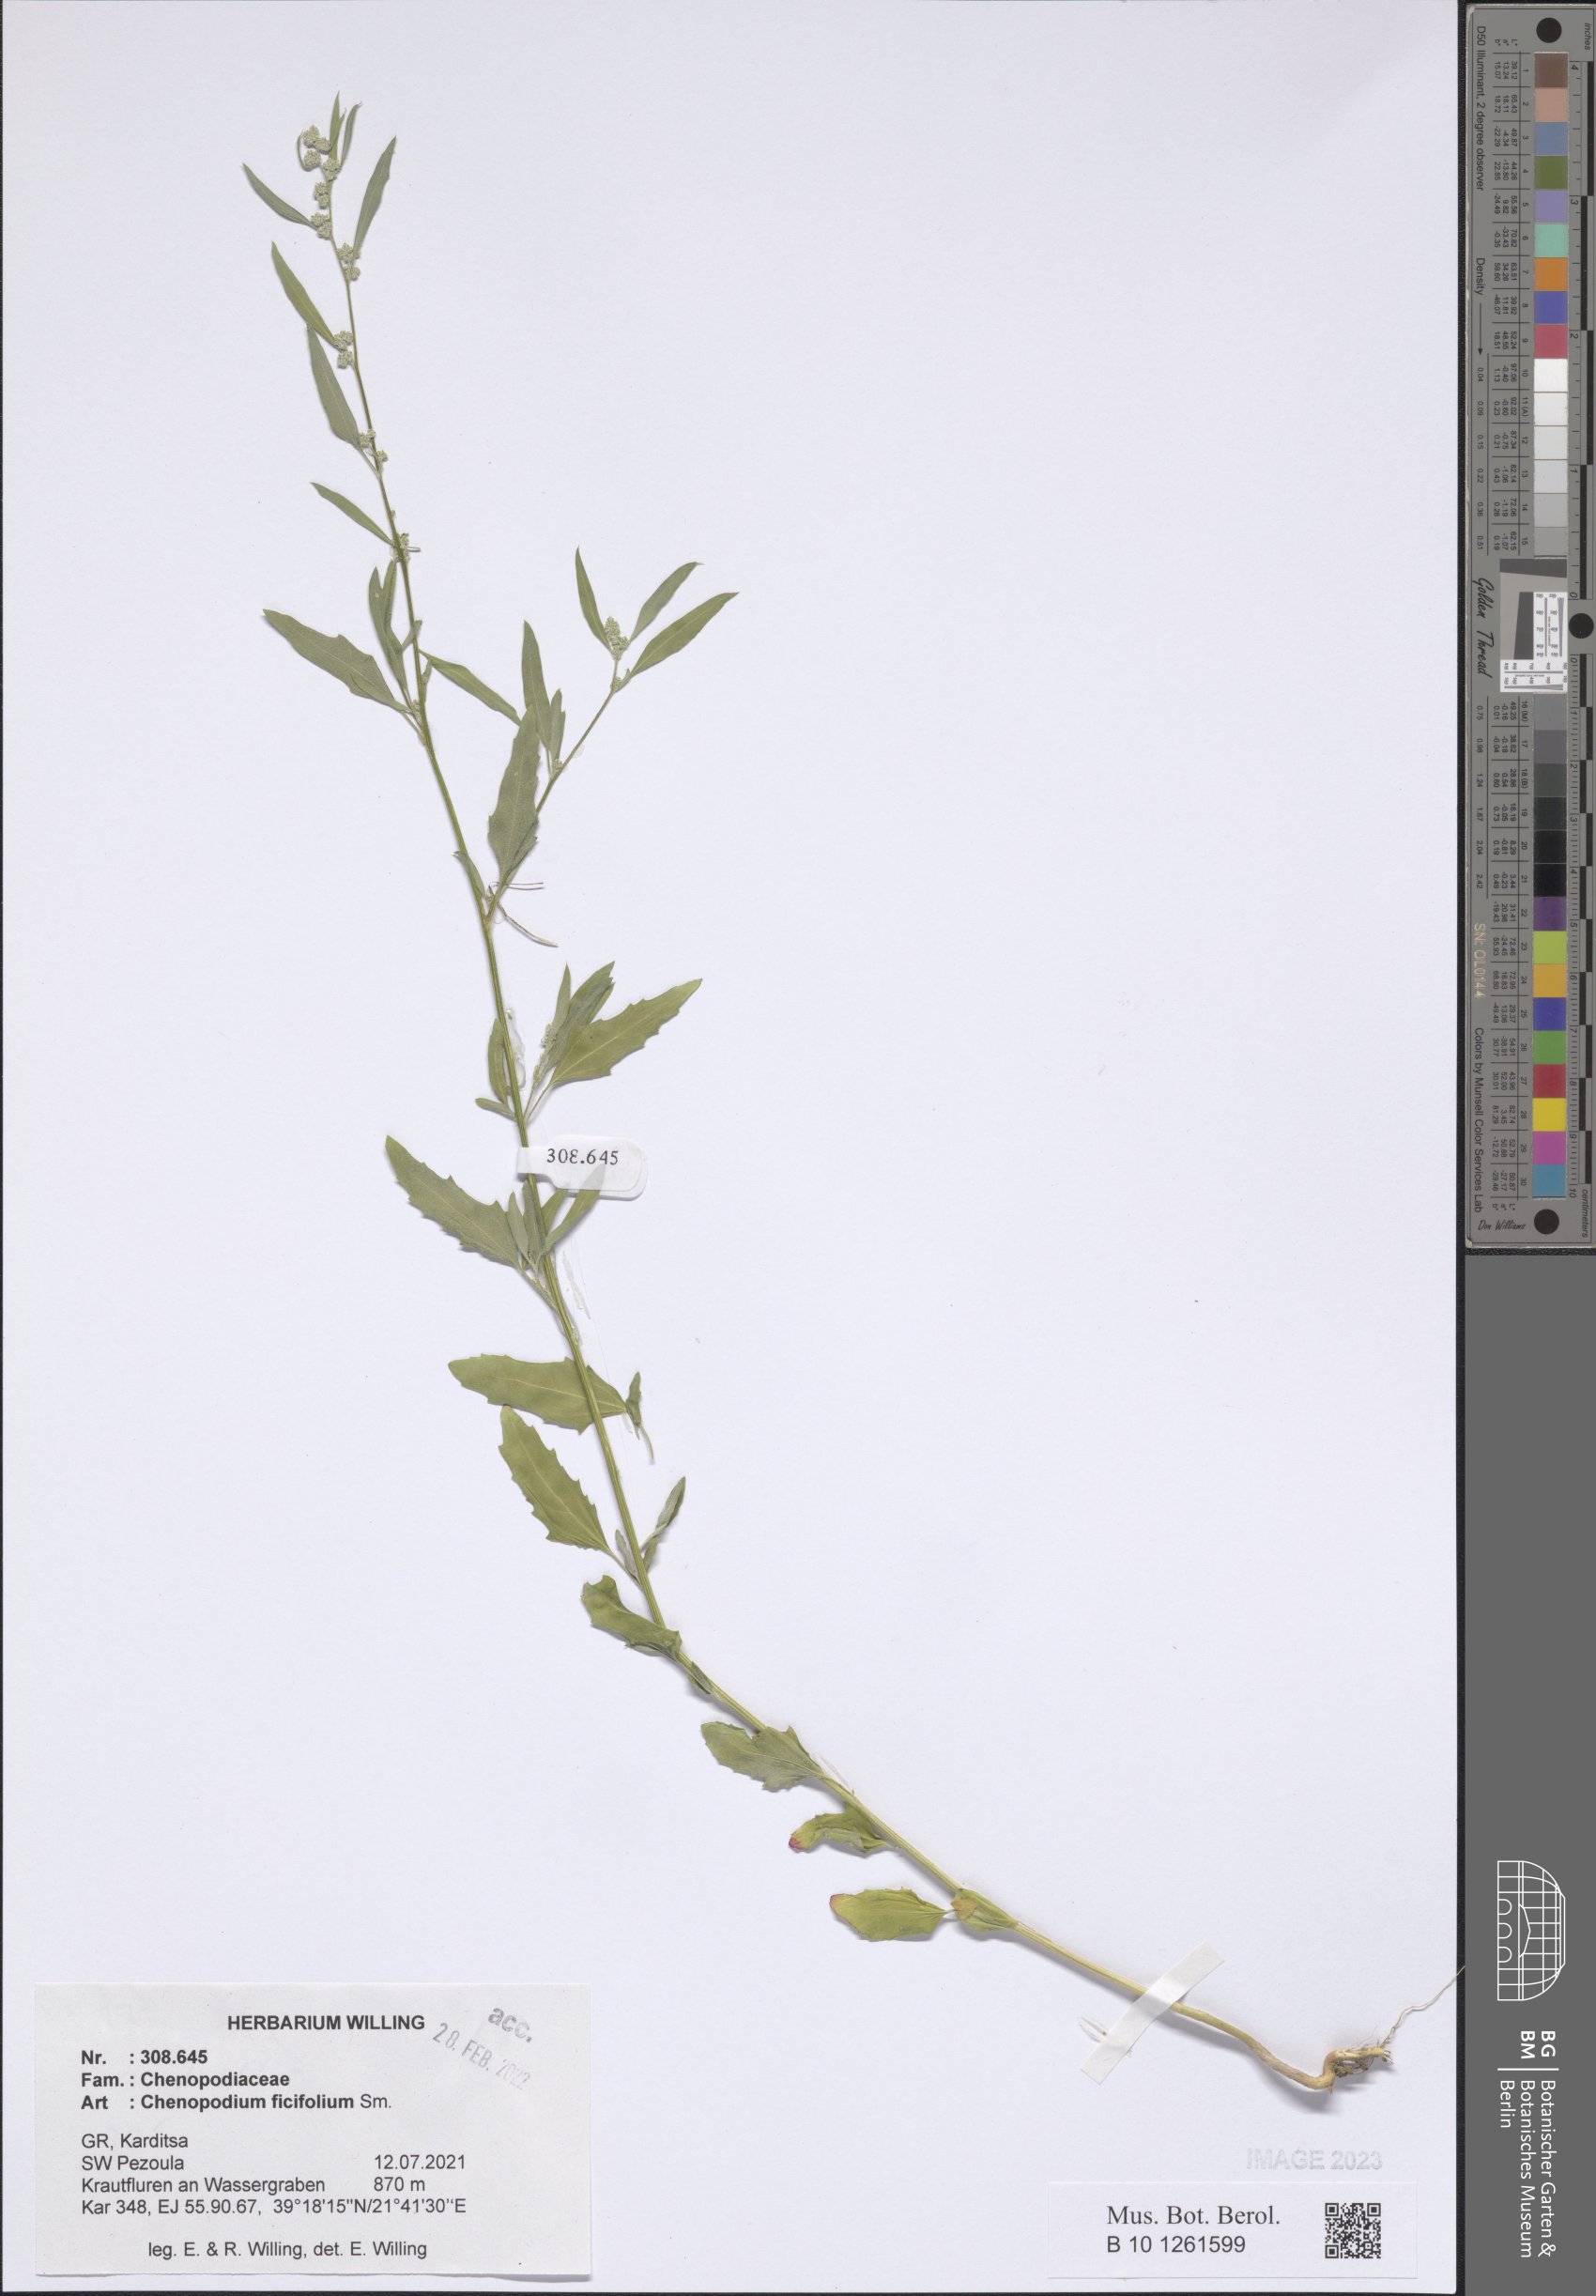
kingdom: Plantae
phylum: Tracheophyta
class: Magnoliopsida
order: Caryophyllales
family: Amaranthaceae
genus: Chenopodium
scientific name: Chenopodium ficifolium
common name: Fig-leaved goosefoot
